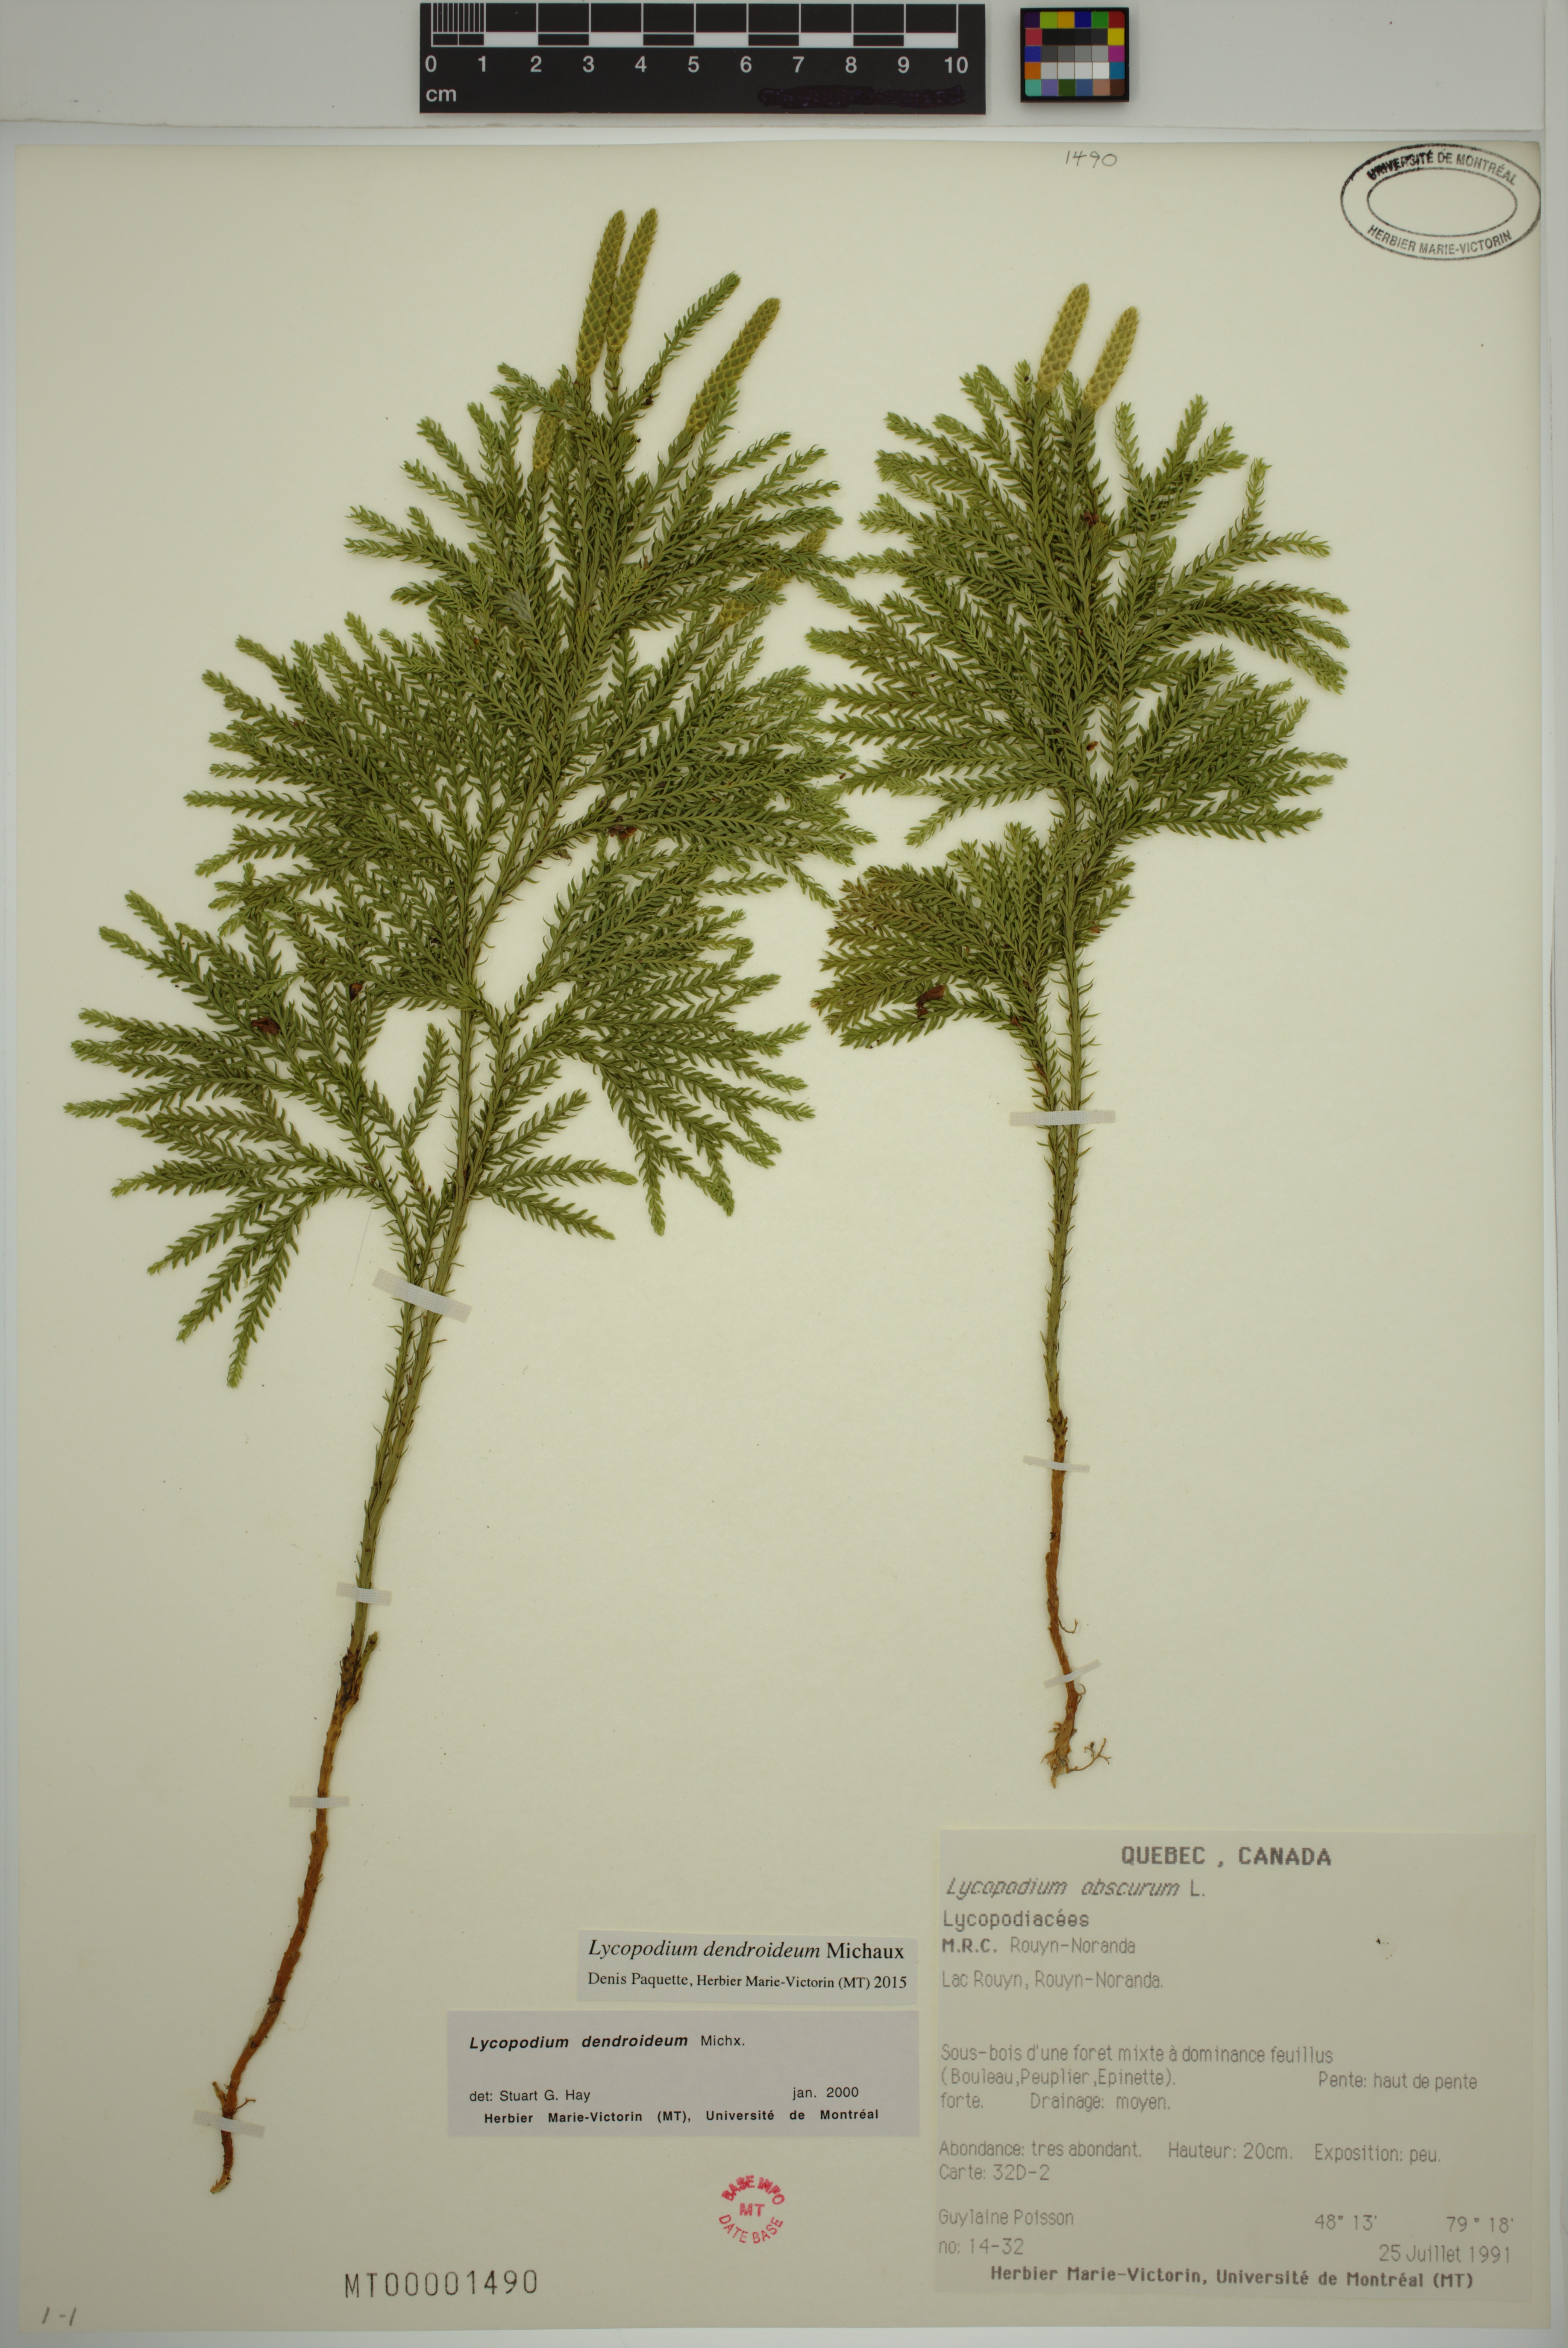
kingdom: Plantae
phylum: Tracheophyta
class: Lycopodiopsida
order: Lycopodiales
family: Lycopodiaceae
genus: Dendrolycopodium
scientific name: Dendrolycopodium dendroideum
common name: Northern tree-clubmoss
